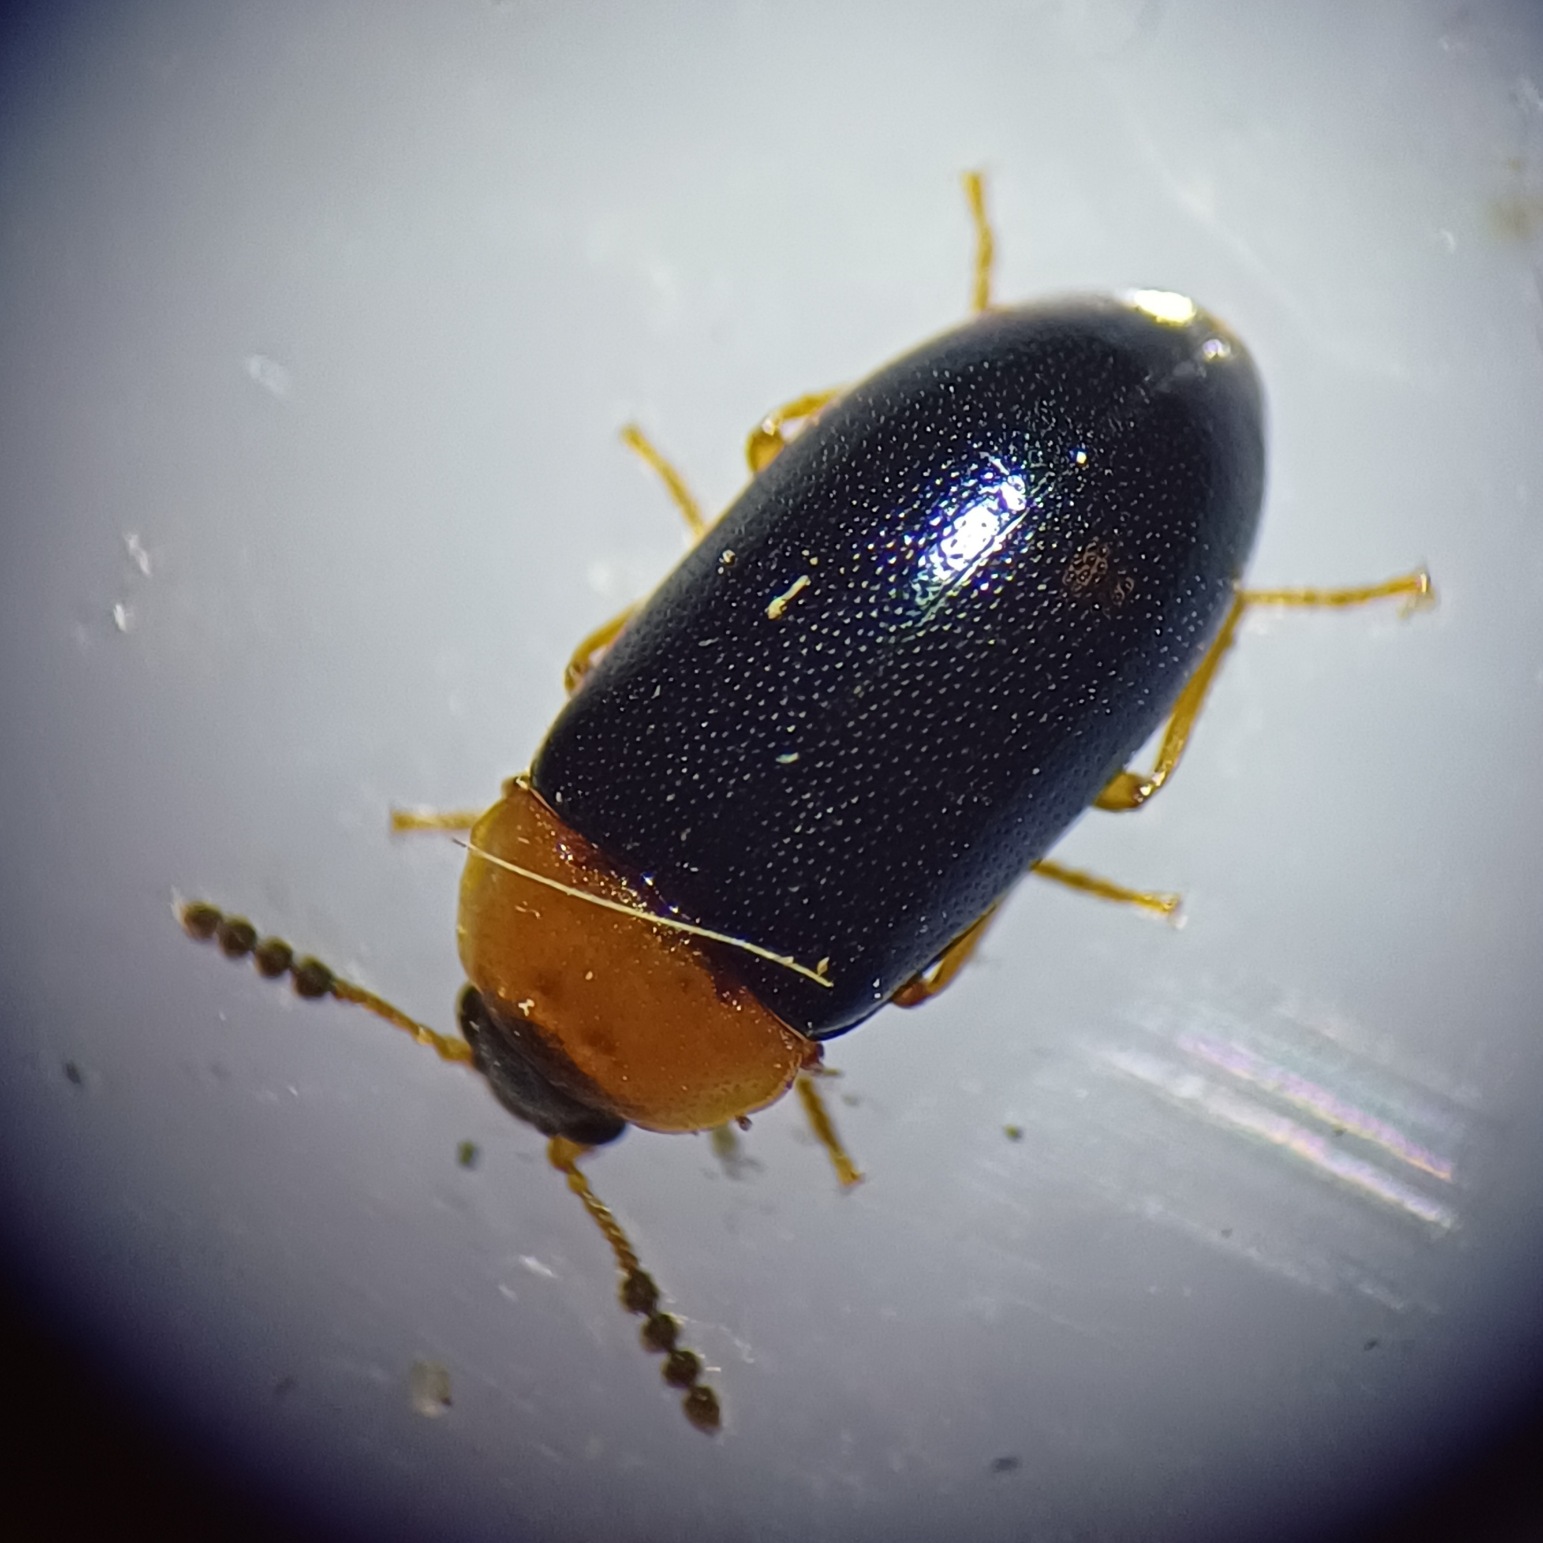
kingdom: Animalia
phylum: Arthropoda
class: Insecta
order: Coleoptera
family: Tetratomidae
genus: Tetratoma
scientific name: Tetratoma fungorum
